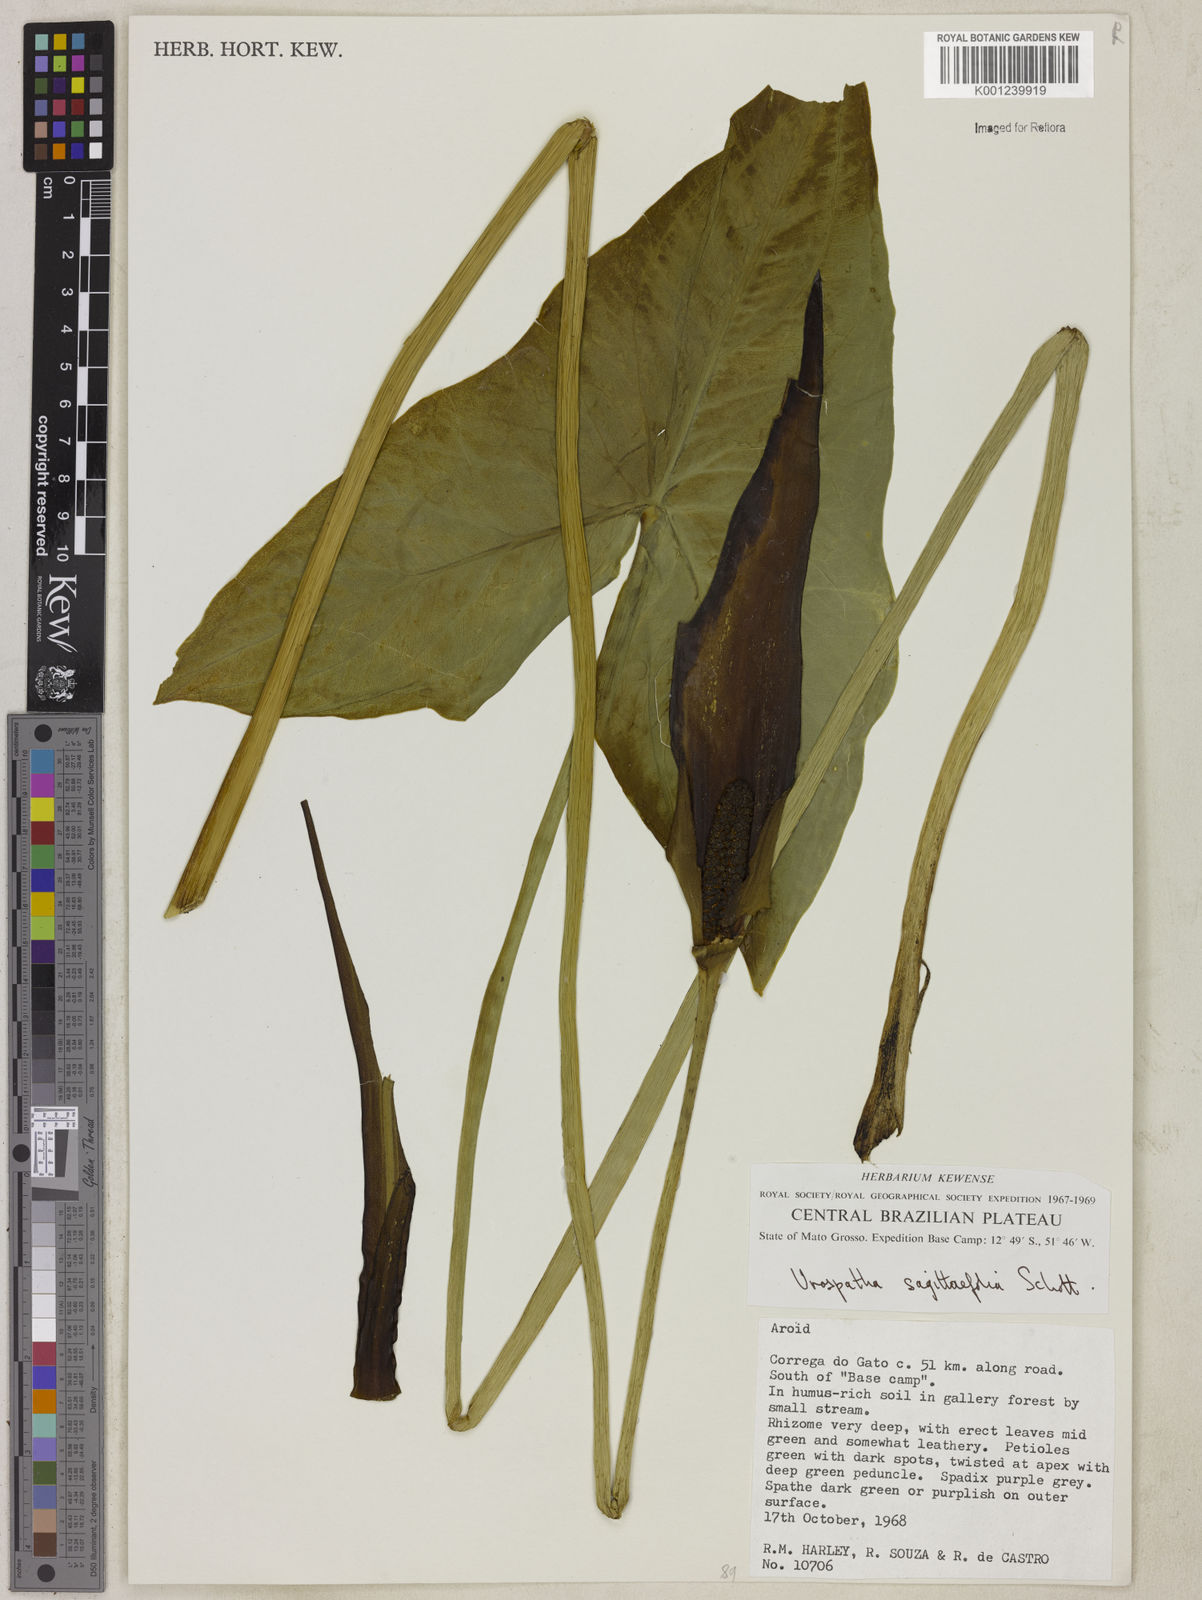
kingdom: Plantae
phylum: Tracheophyta
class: Liliopsida
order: Alismatales
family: Araceae
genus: Urospatha
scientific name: Urospatha sagittifolia
